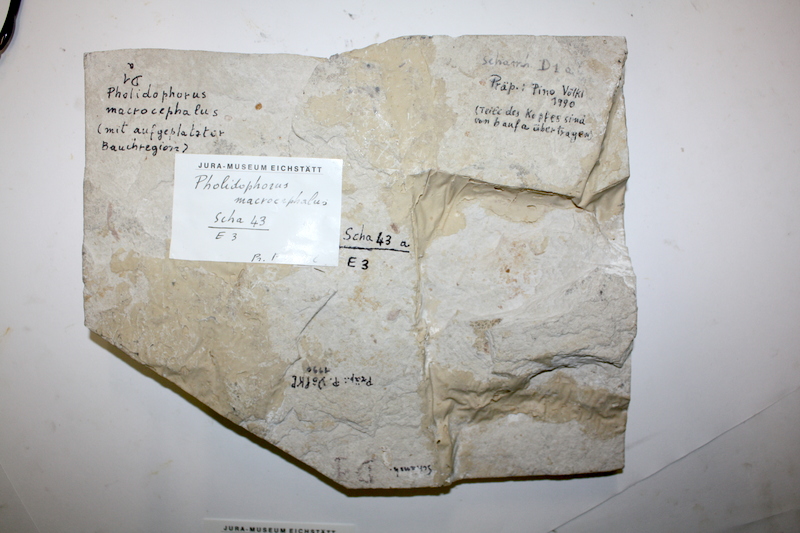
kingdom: Animalia
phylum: Chordata
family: Ankylophoridae
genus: Siemensichthys
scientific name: Siemensichthys macrocephalus
